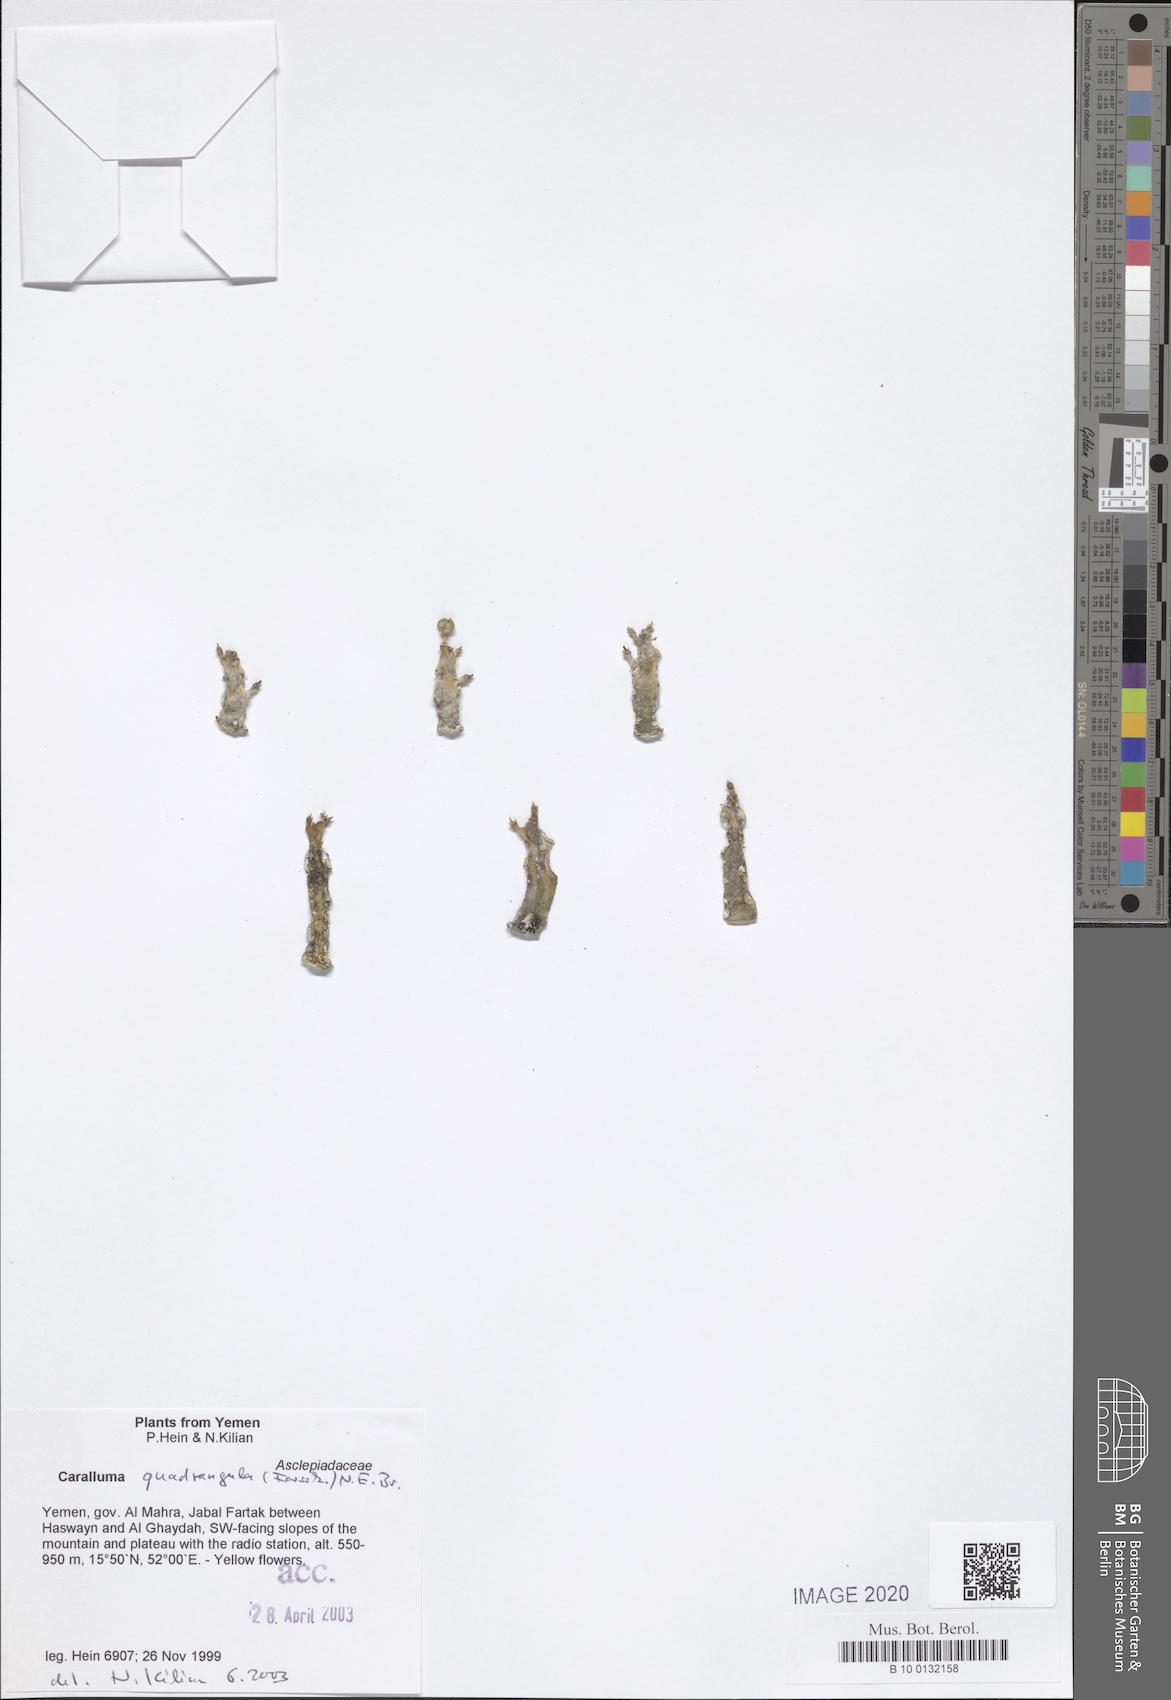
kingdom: Plantae
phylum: Tracheophyta
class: Magnoliopsida
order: Gentianales
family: Apocynaceae
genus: Ceropegia
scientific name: Ceropegia quadrangula
